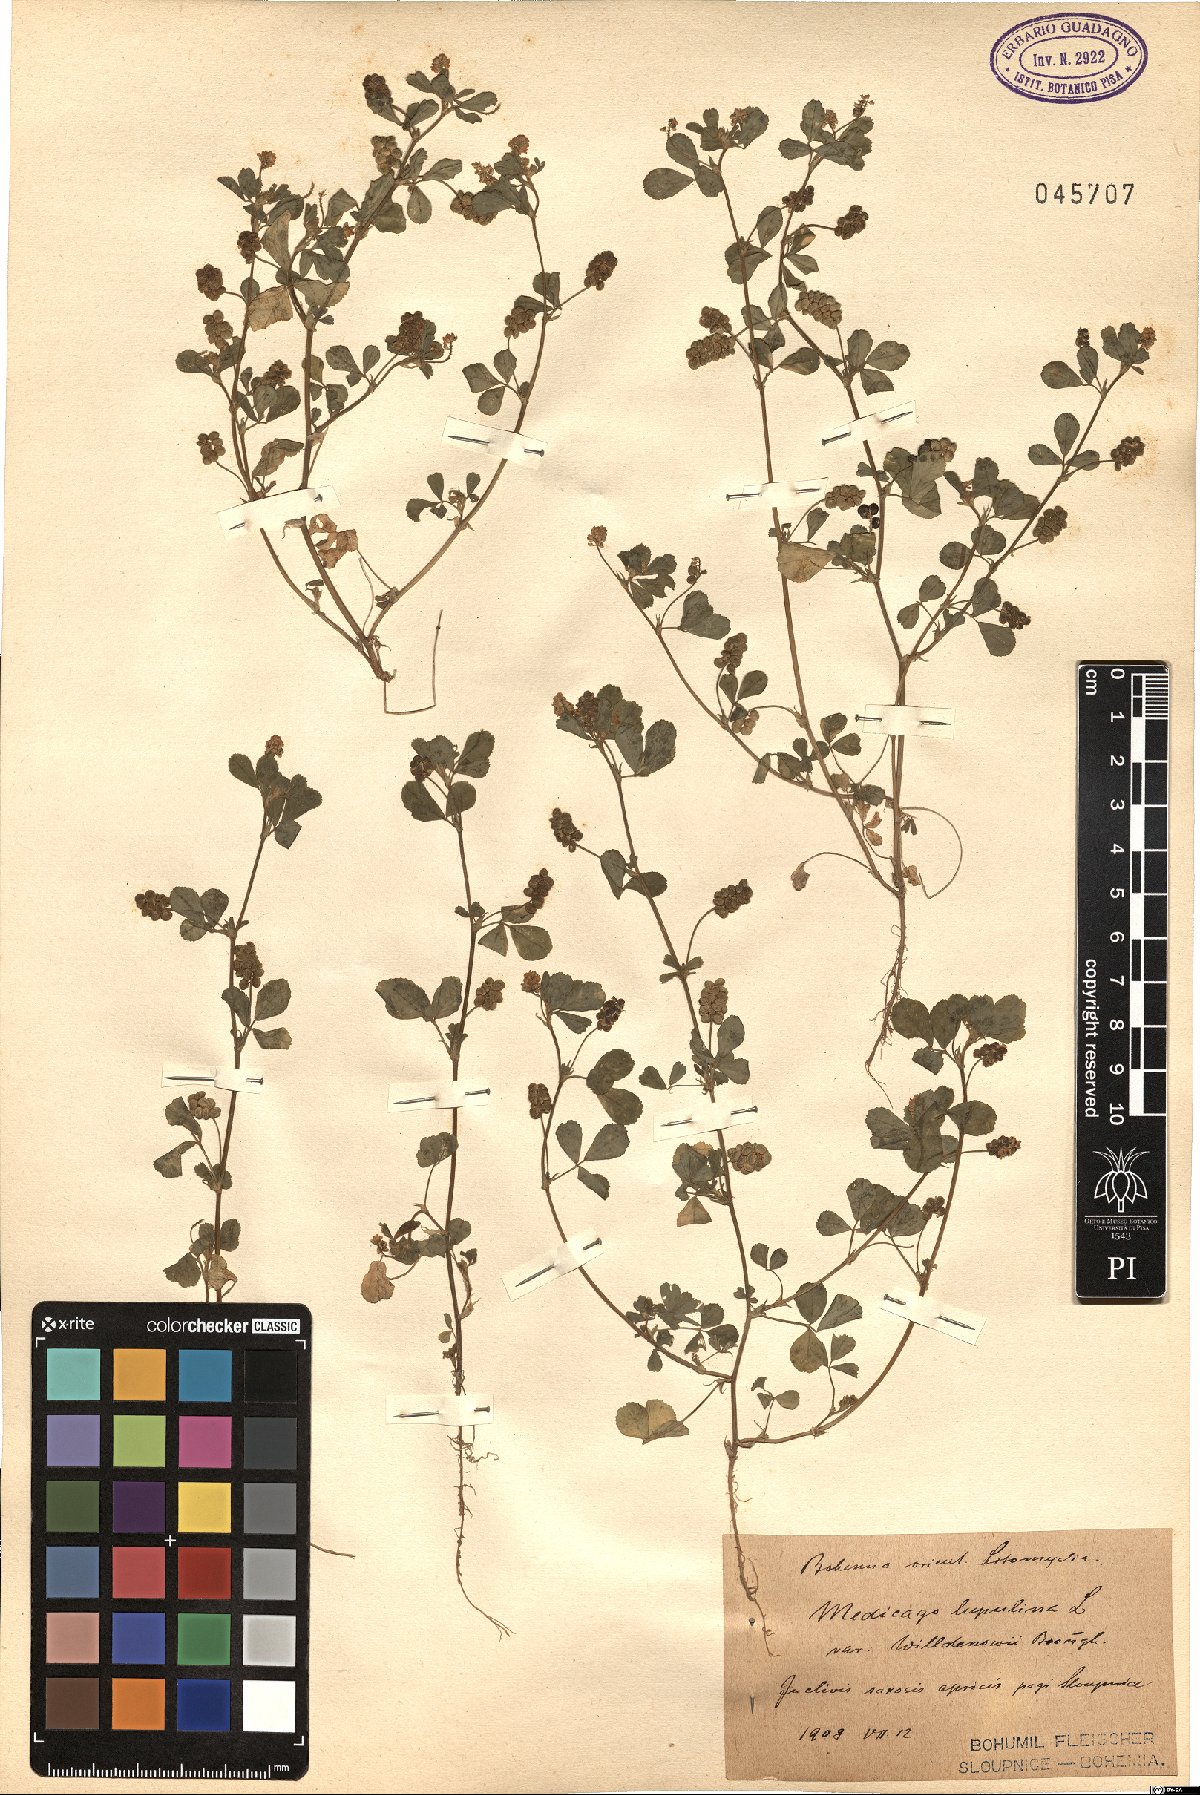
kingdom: Plantae
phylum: Tracheophyta
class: Magnoliopsida
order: Fabales
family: Fabaceae
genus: Medicago
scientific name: Medicago lupulina
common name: Black medick
